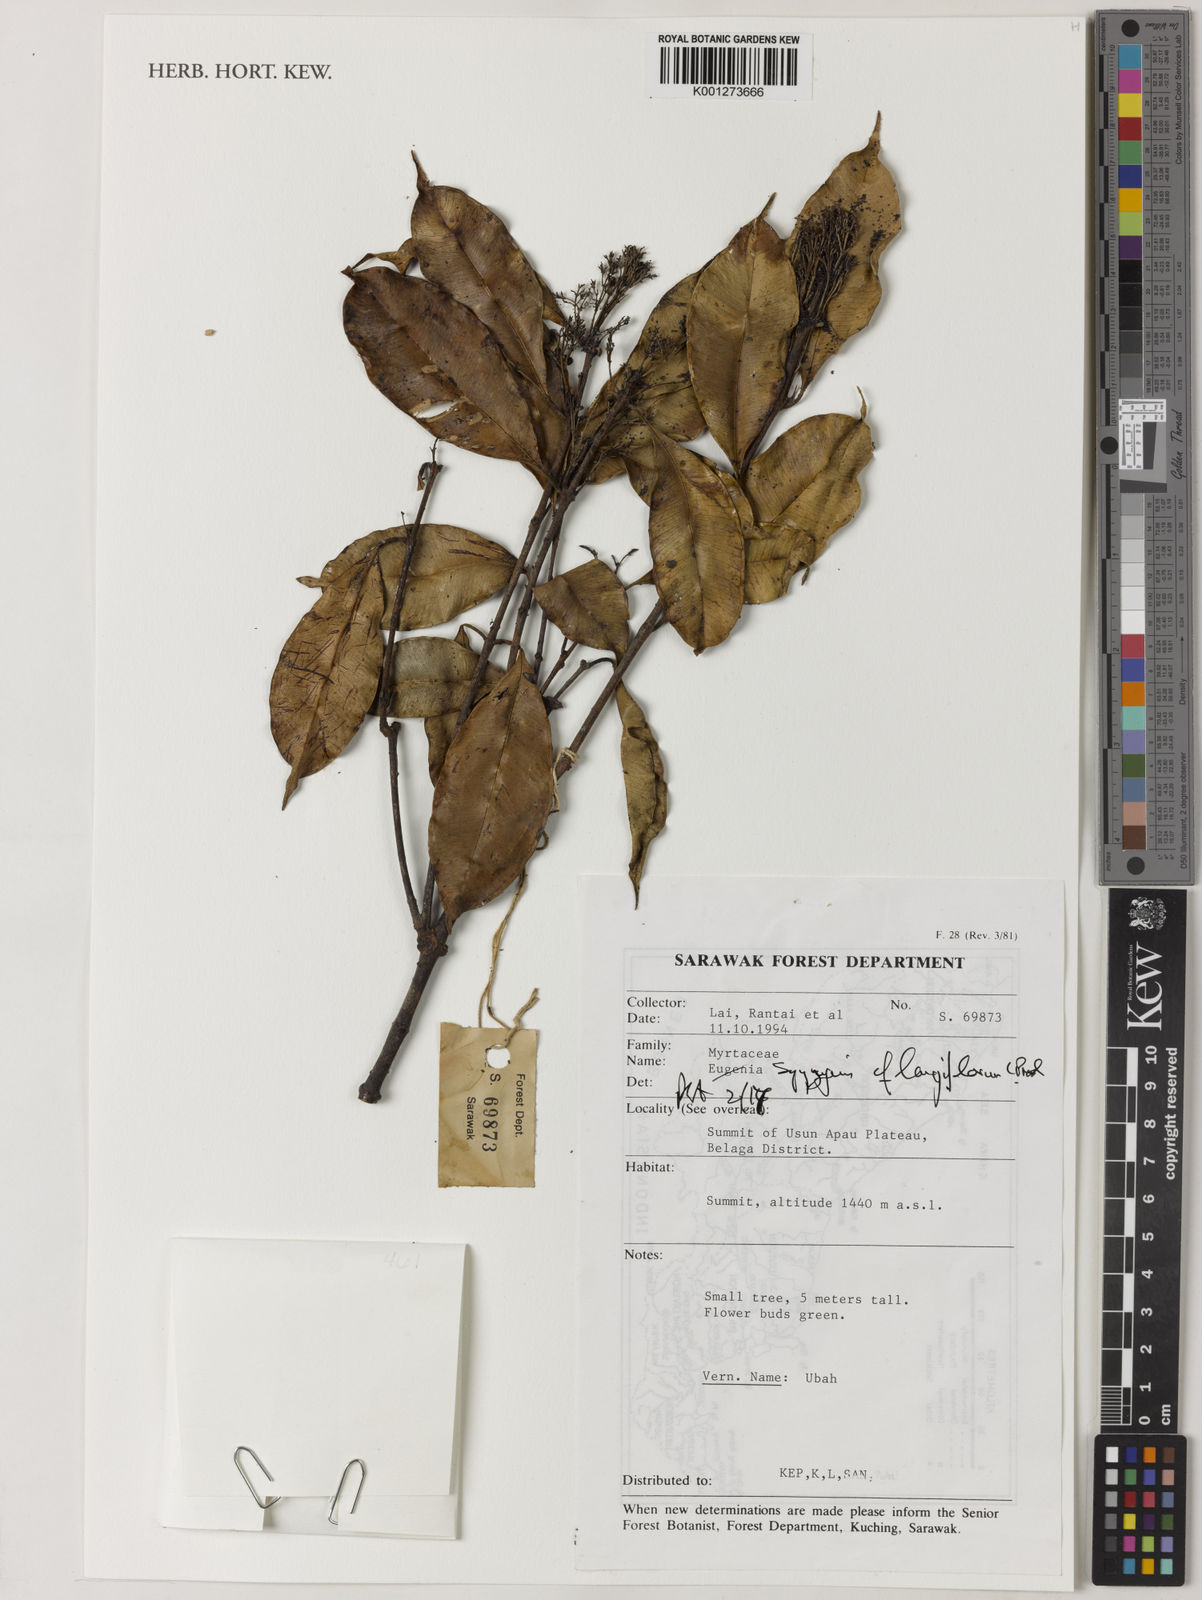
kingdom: Plantae
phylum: Tracheophyta
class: Magnoliopsida
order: Myrtales
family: Myrtaceae
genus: Syzygium
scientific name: Syzygium
